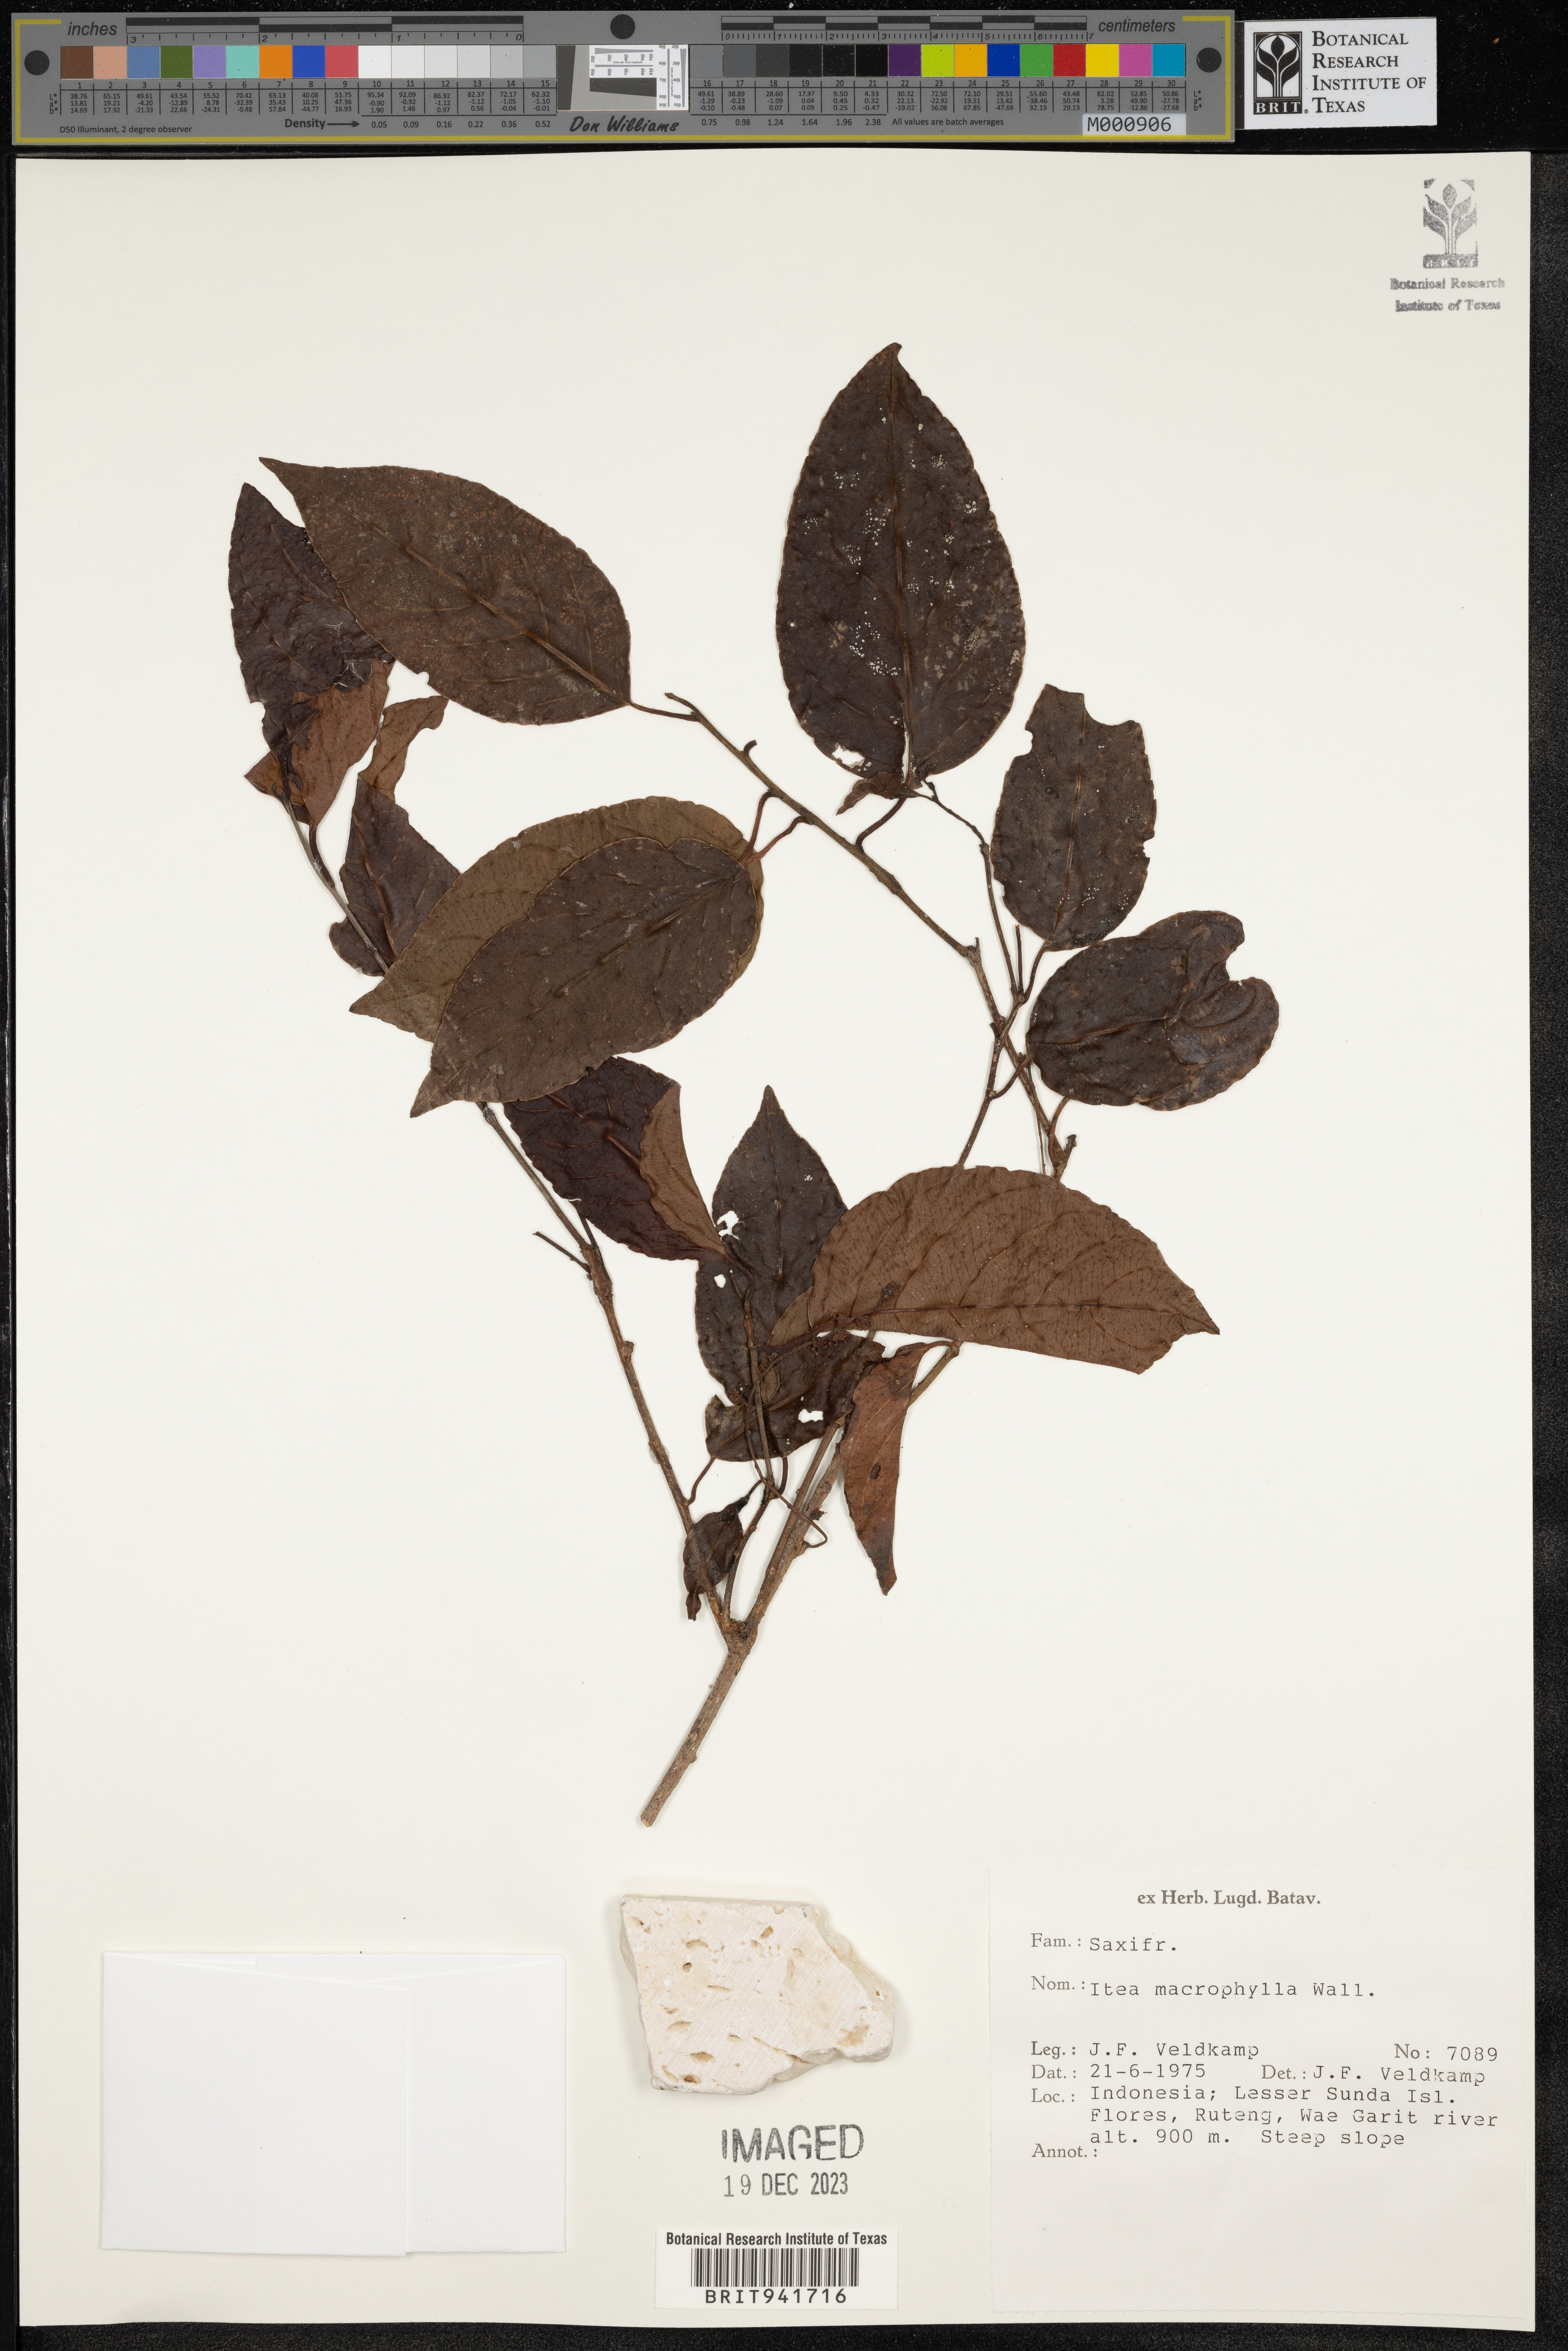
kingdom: Plantae
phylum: Tracheophyta
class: Magnoliopsida
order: Saxifragales
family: Iteaceae
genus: Itea
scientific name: Itea
